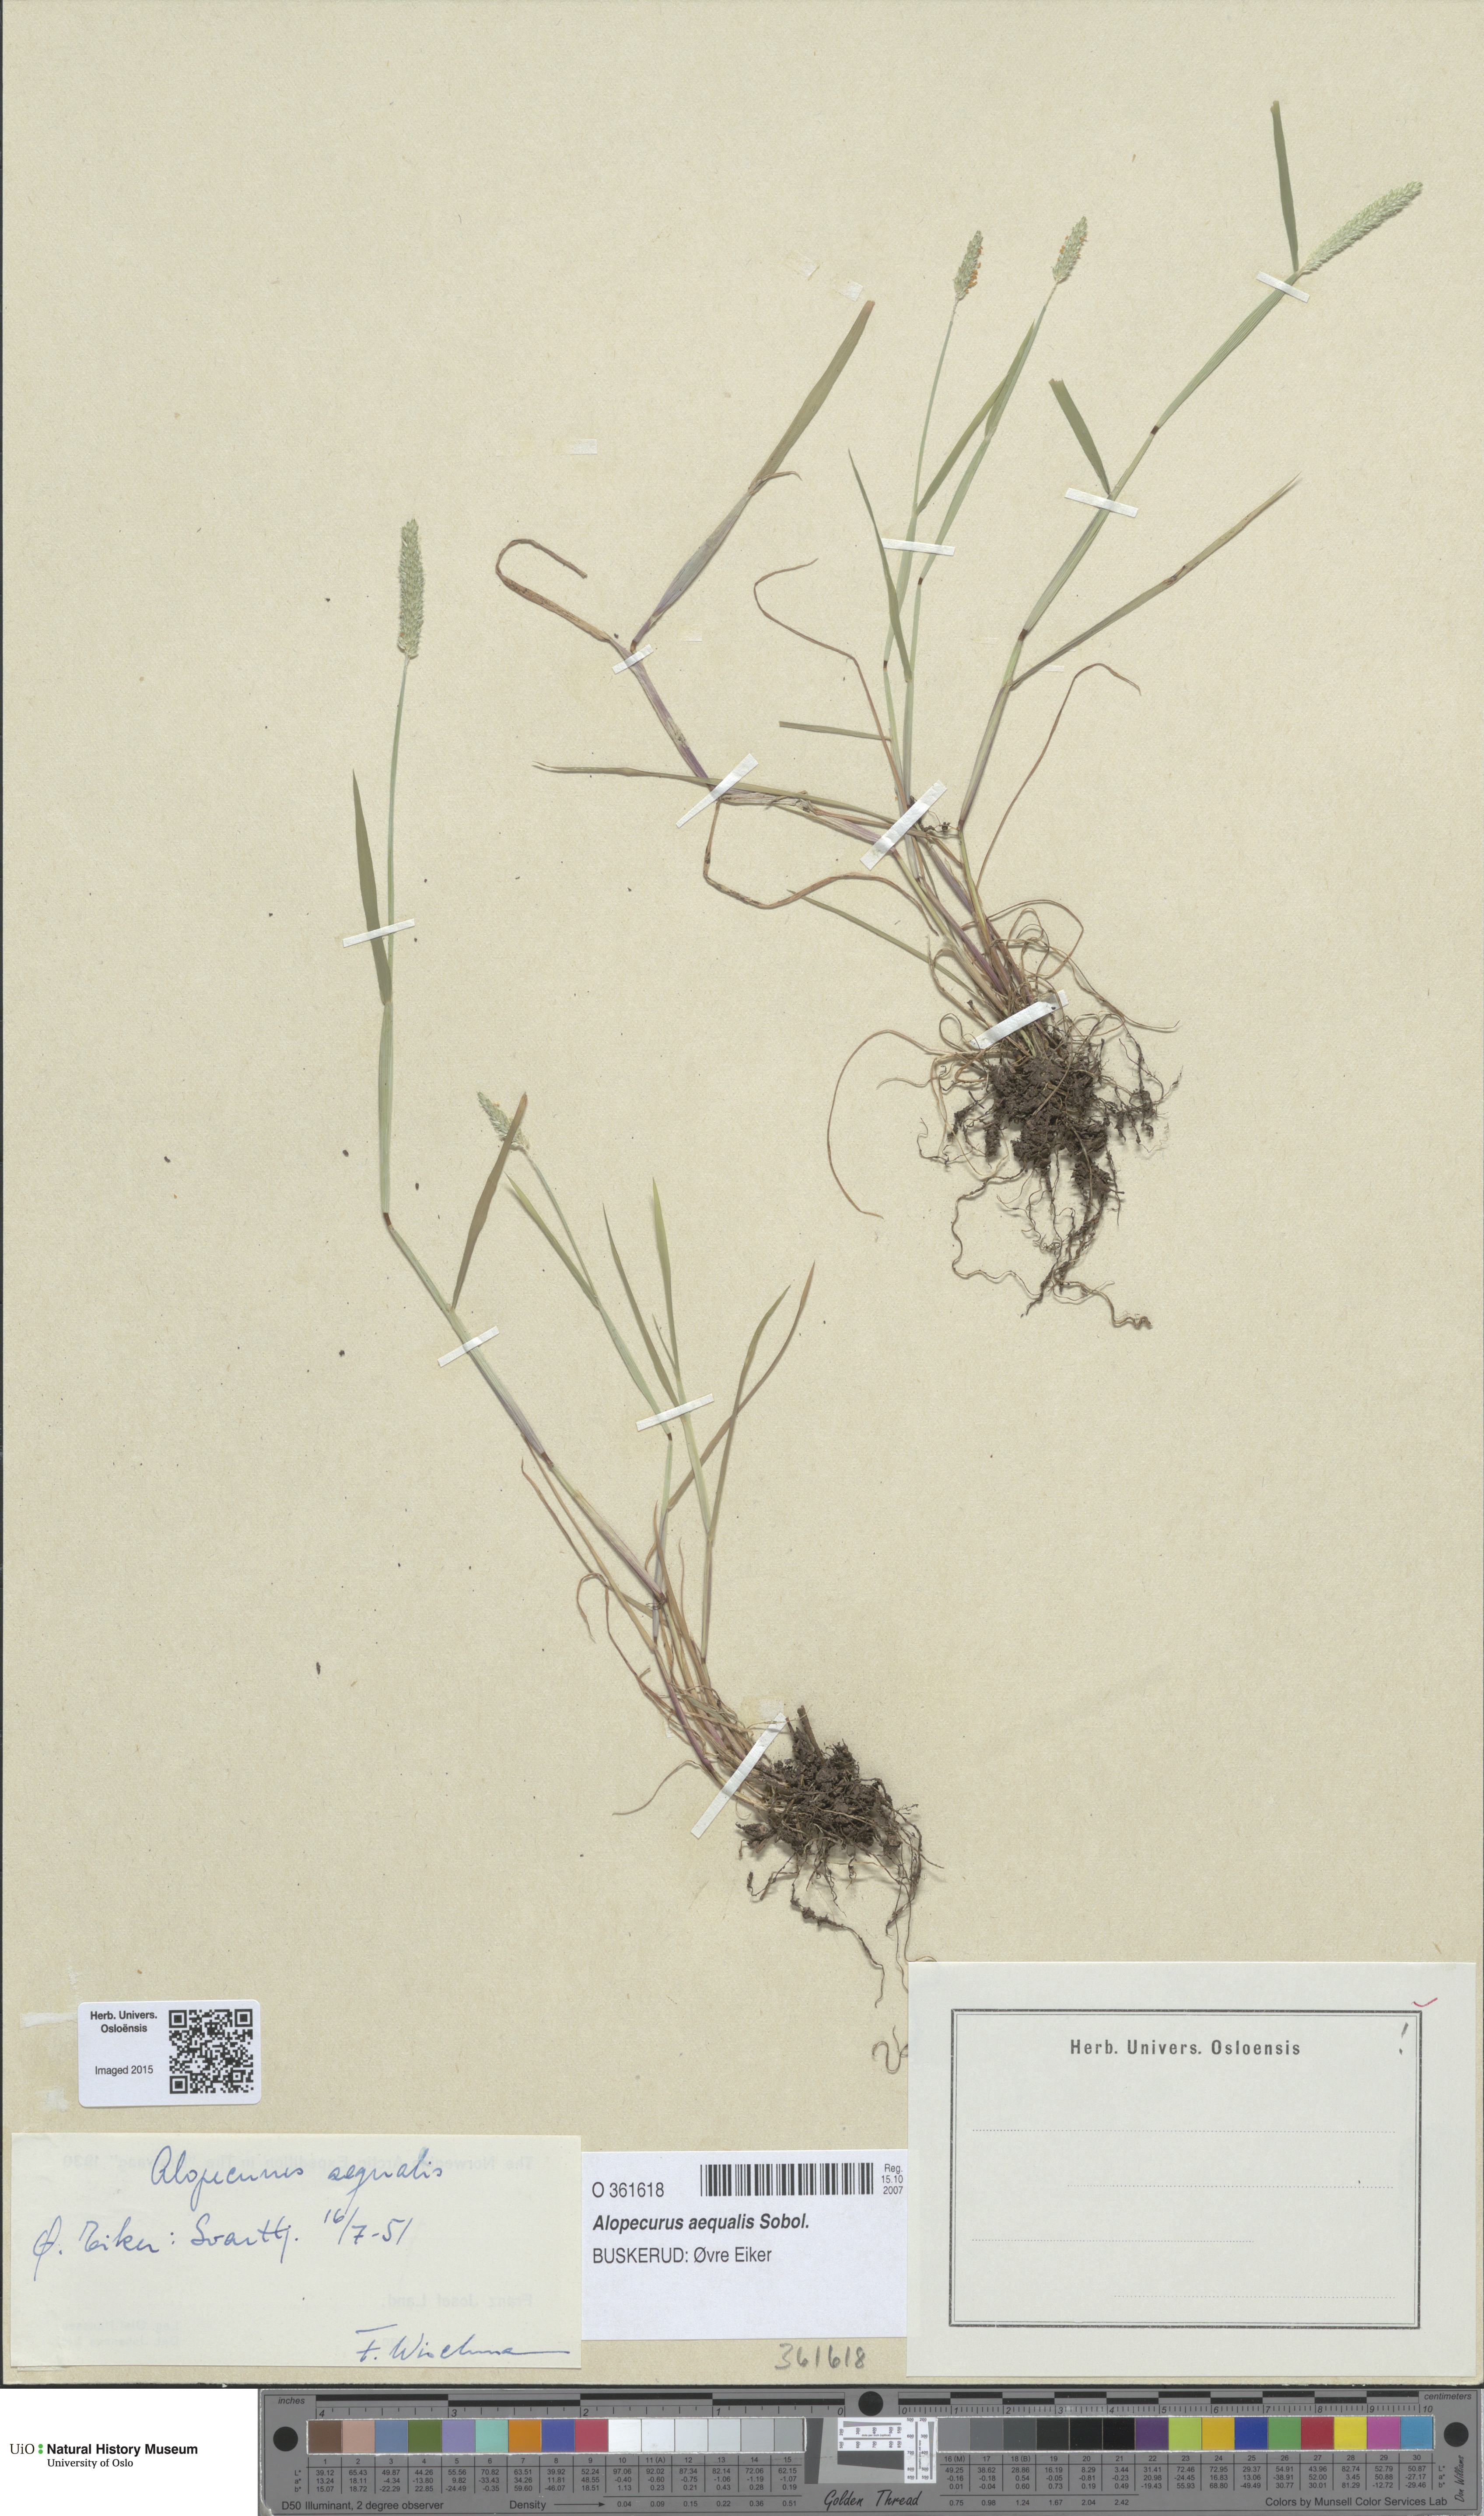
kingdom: Plantae
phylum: Tracheophyta
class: Liliopsida
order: Poales
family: Poaceae
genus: Alopecurus
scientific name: Alopecurus aequalis
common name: Orange foxtail
